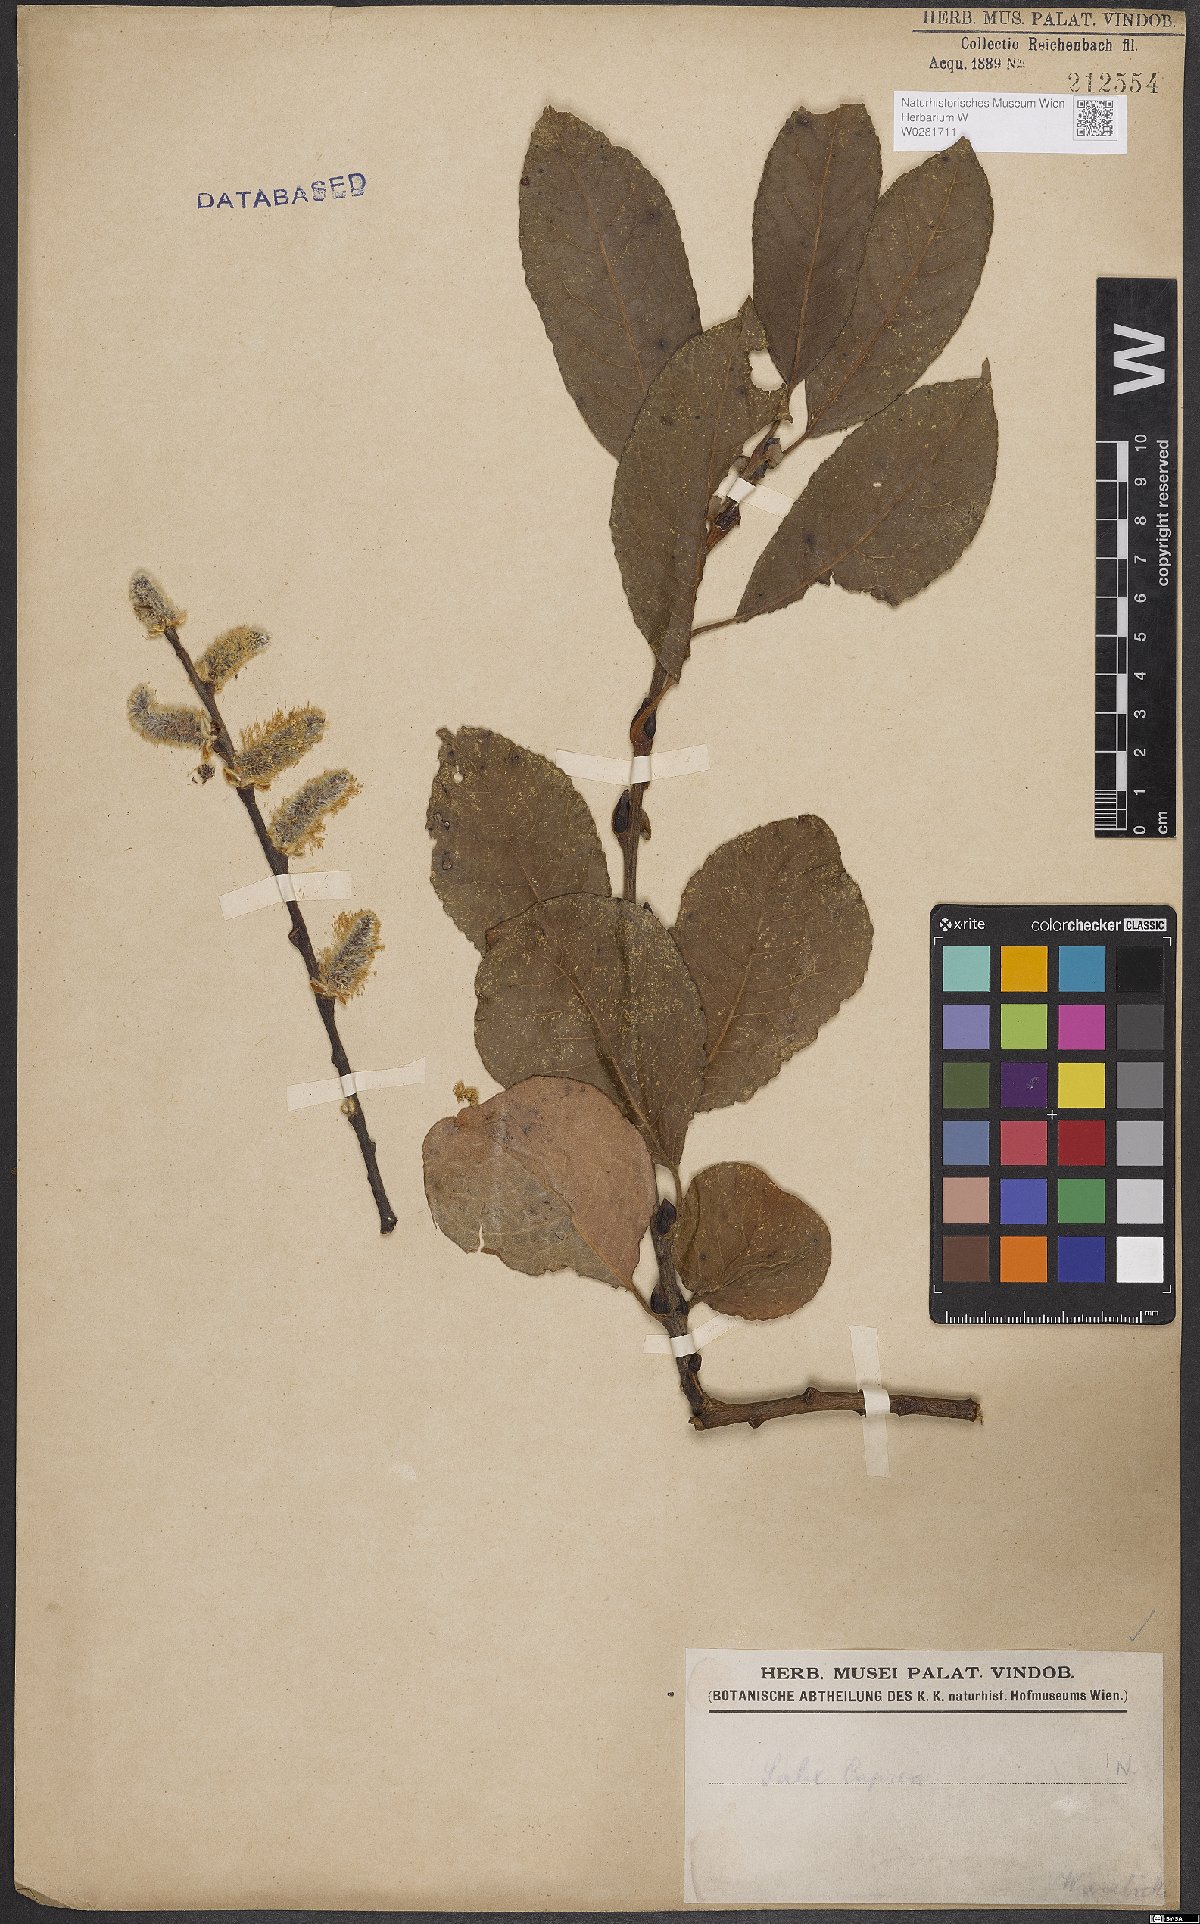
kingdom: Plantae
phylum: Tracheophyta
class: Magnoliopsida
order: Malpighiales
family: Salicaceae
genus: Salix
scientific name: Salix caprea
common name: Goat willow
